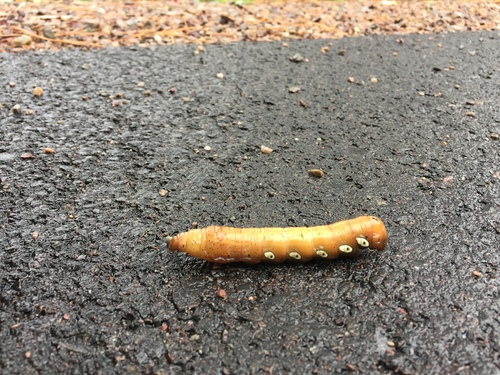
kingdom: Animalia
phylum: Arthropoda
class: Insecta
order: Lepidoptera
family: Sphingidae
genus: Eumorpha
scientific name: Eumorpha pandorus
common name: Pandora sphinx
